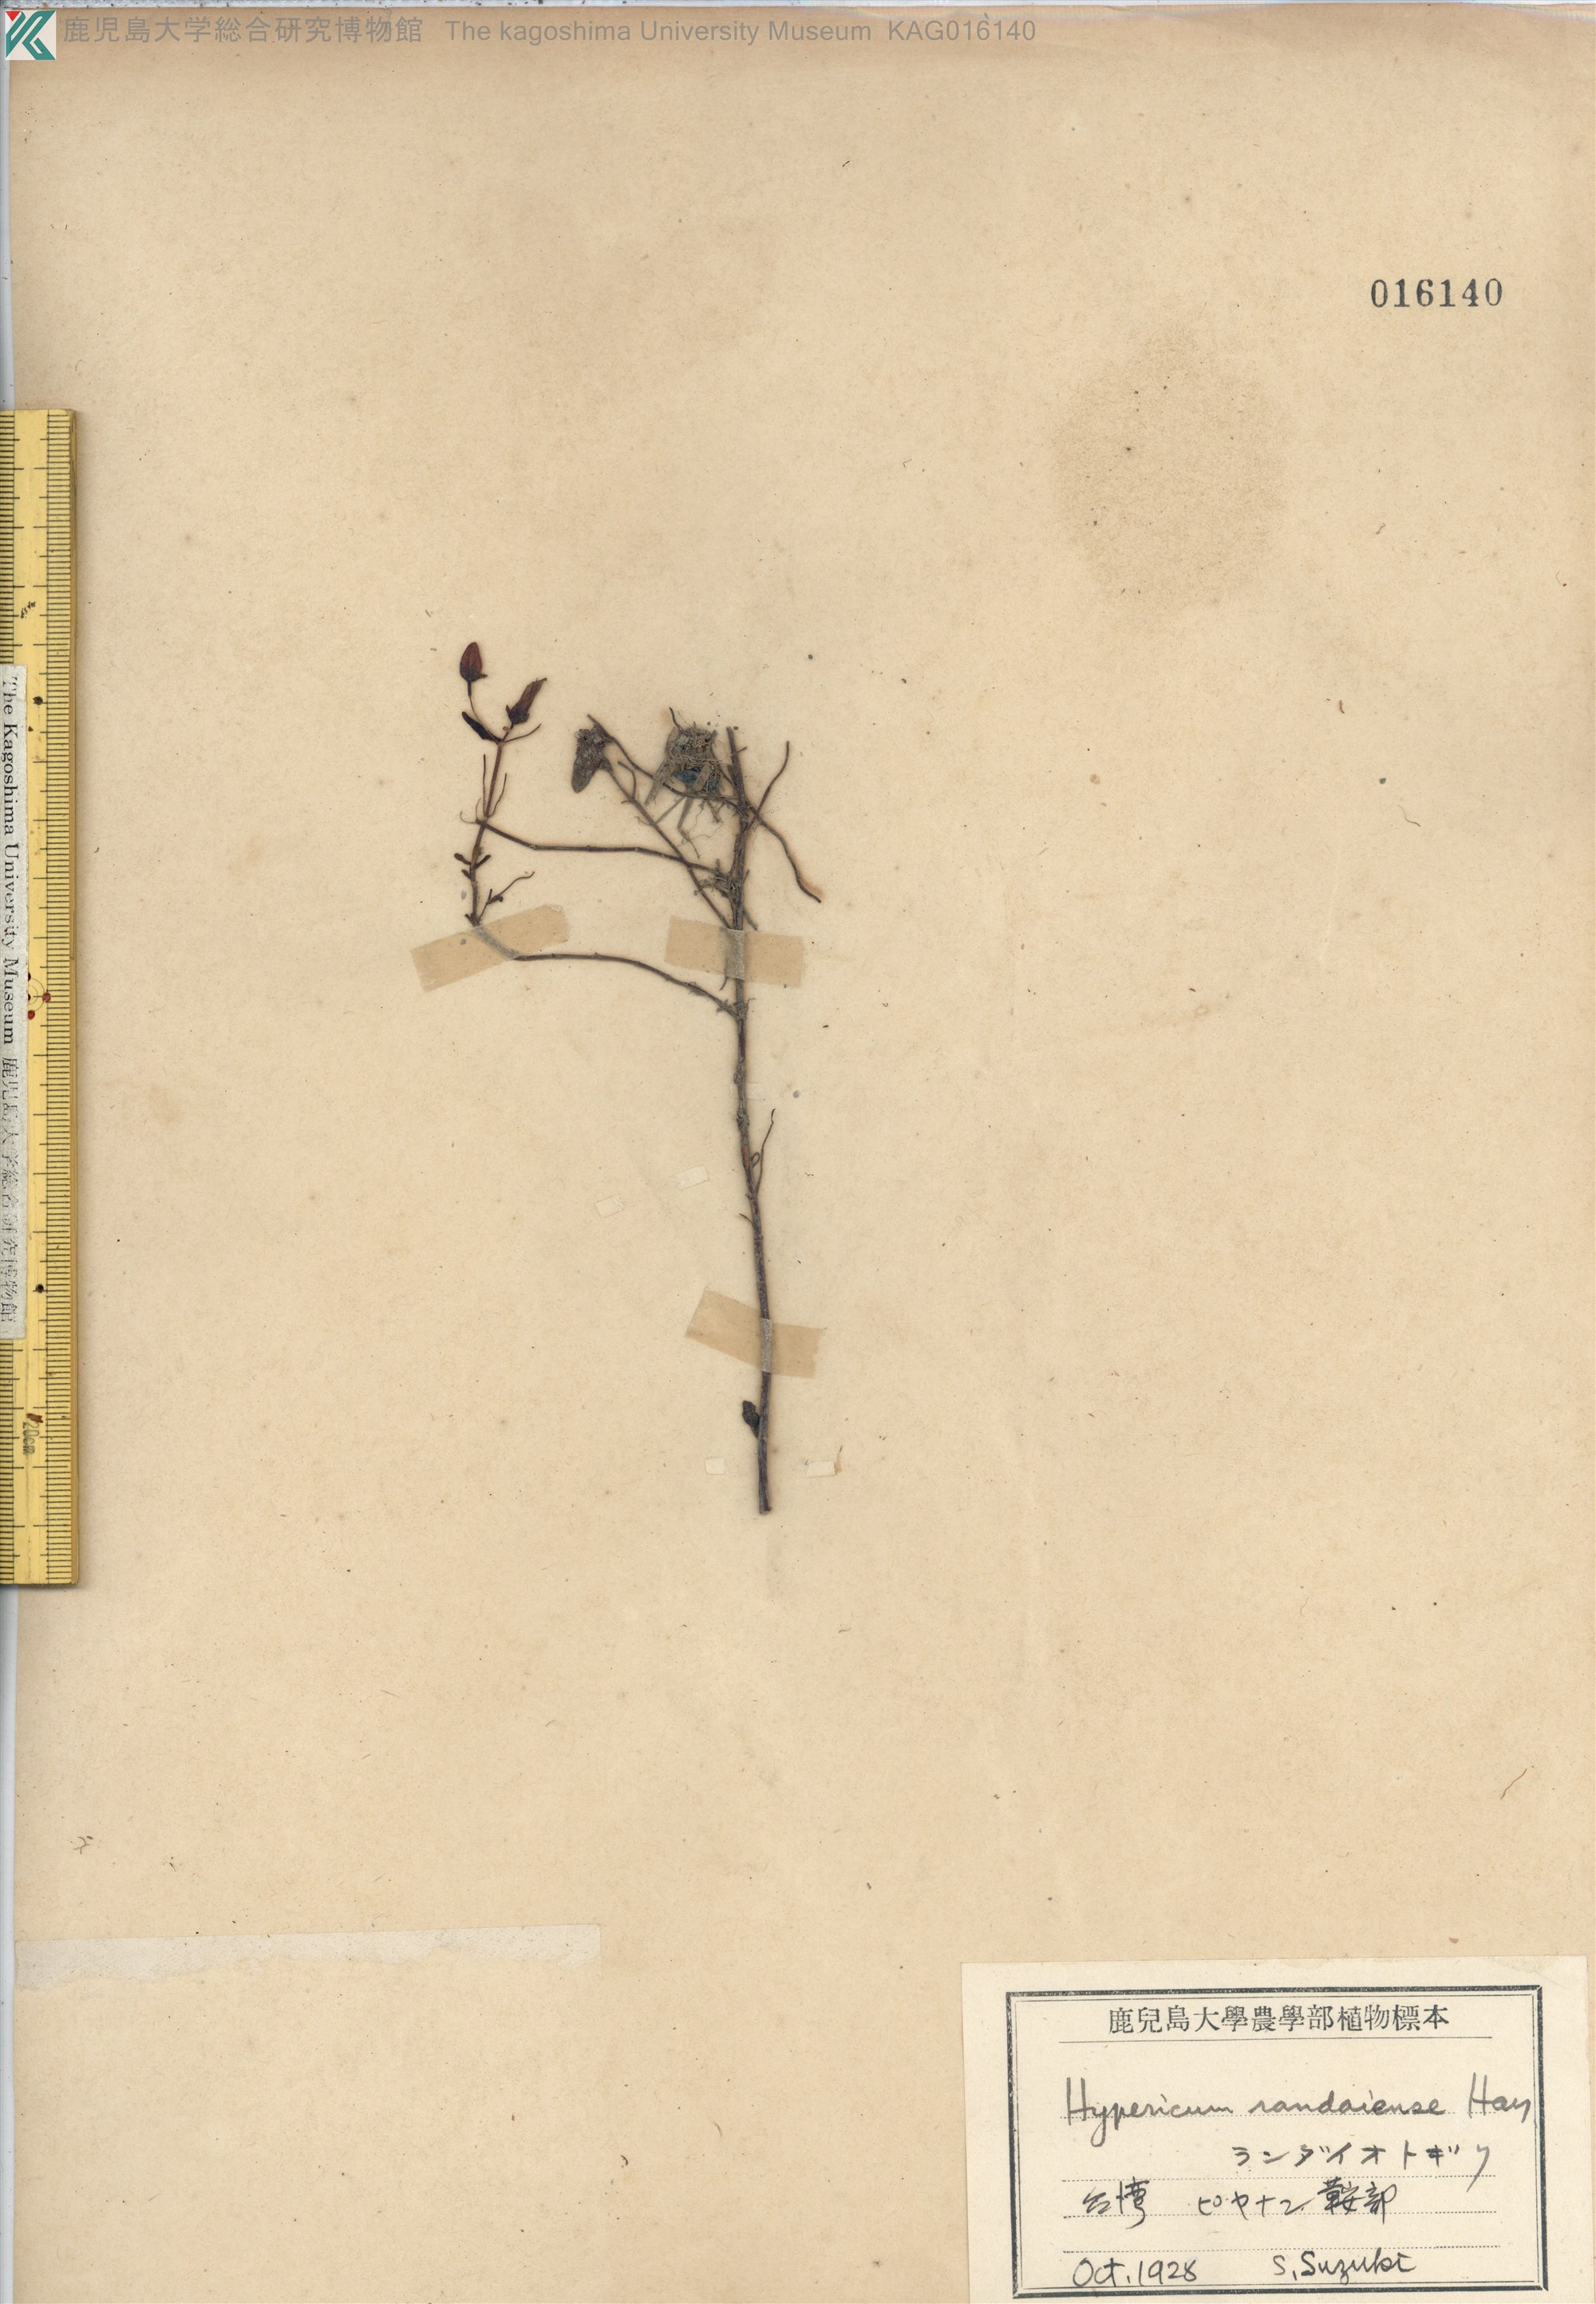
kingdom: Plantae
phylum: Tracheophyta
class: Magnoliopsida
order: Malpighiales
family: Hypericaceae
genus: Hypericum
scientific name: Hypericum nagasawae
